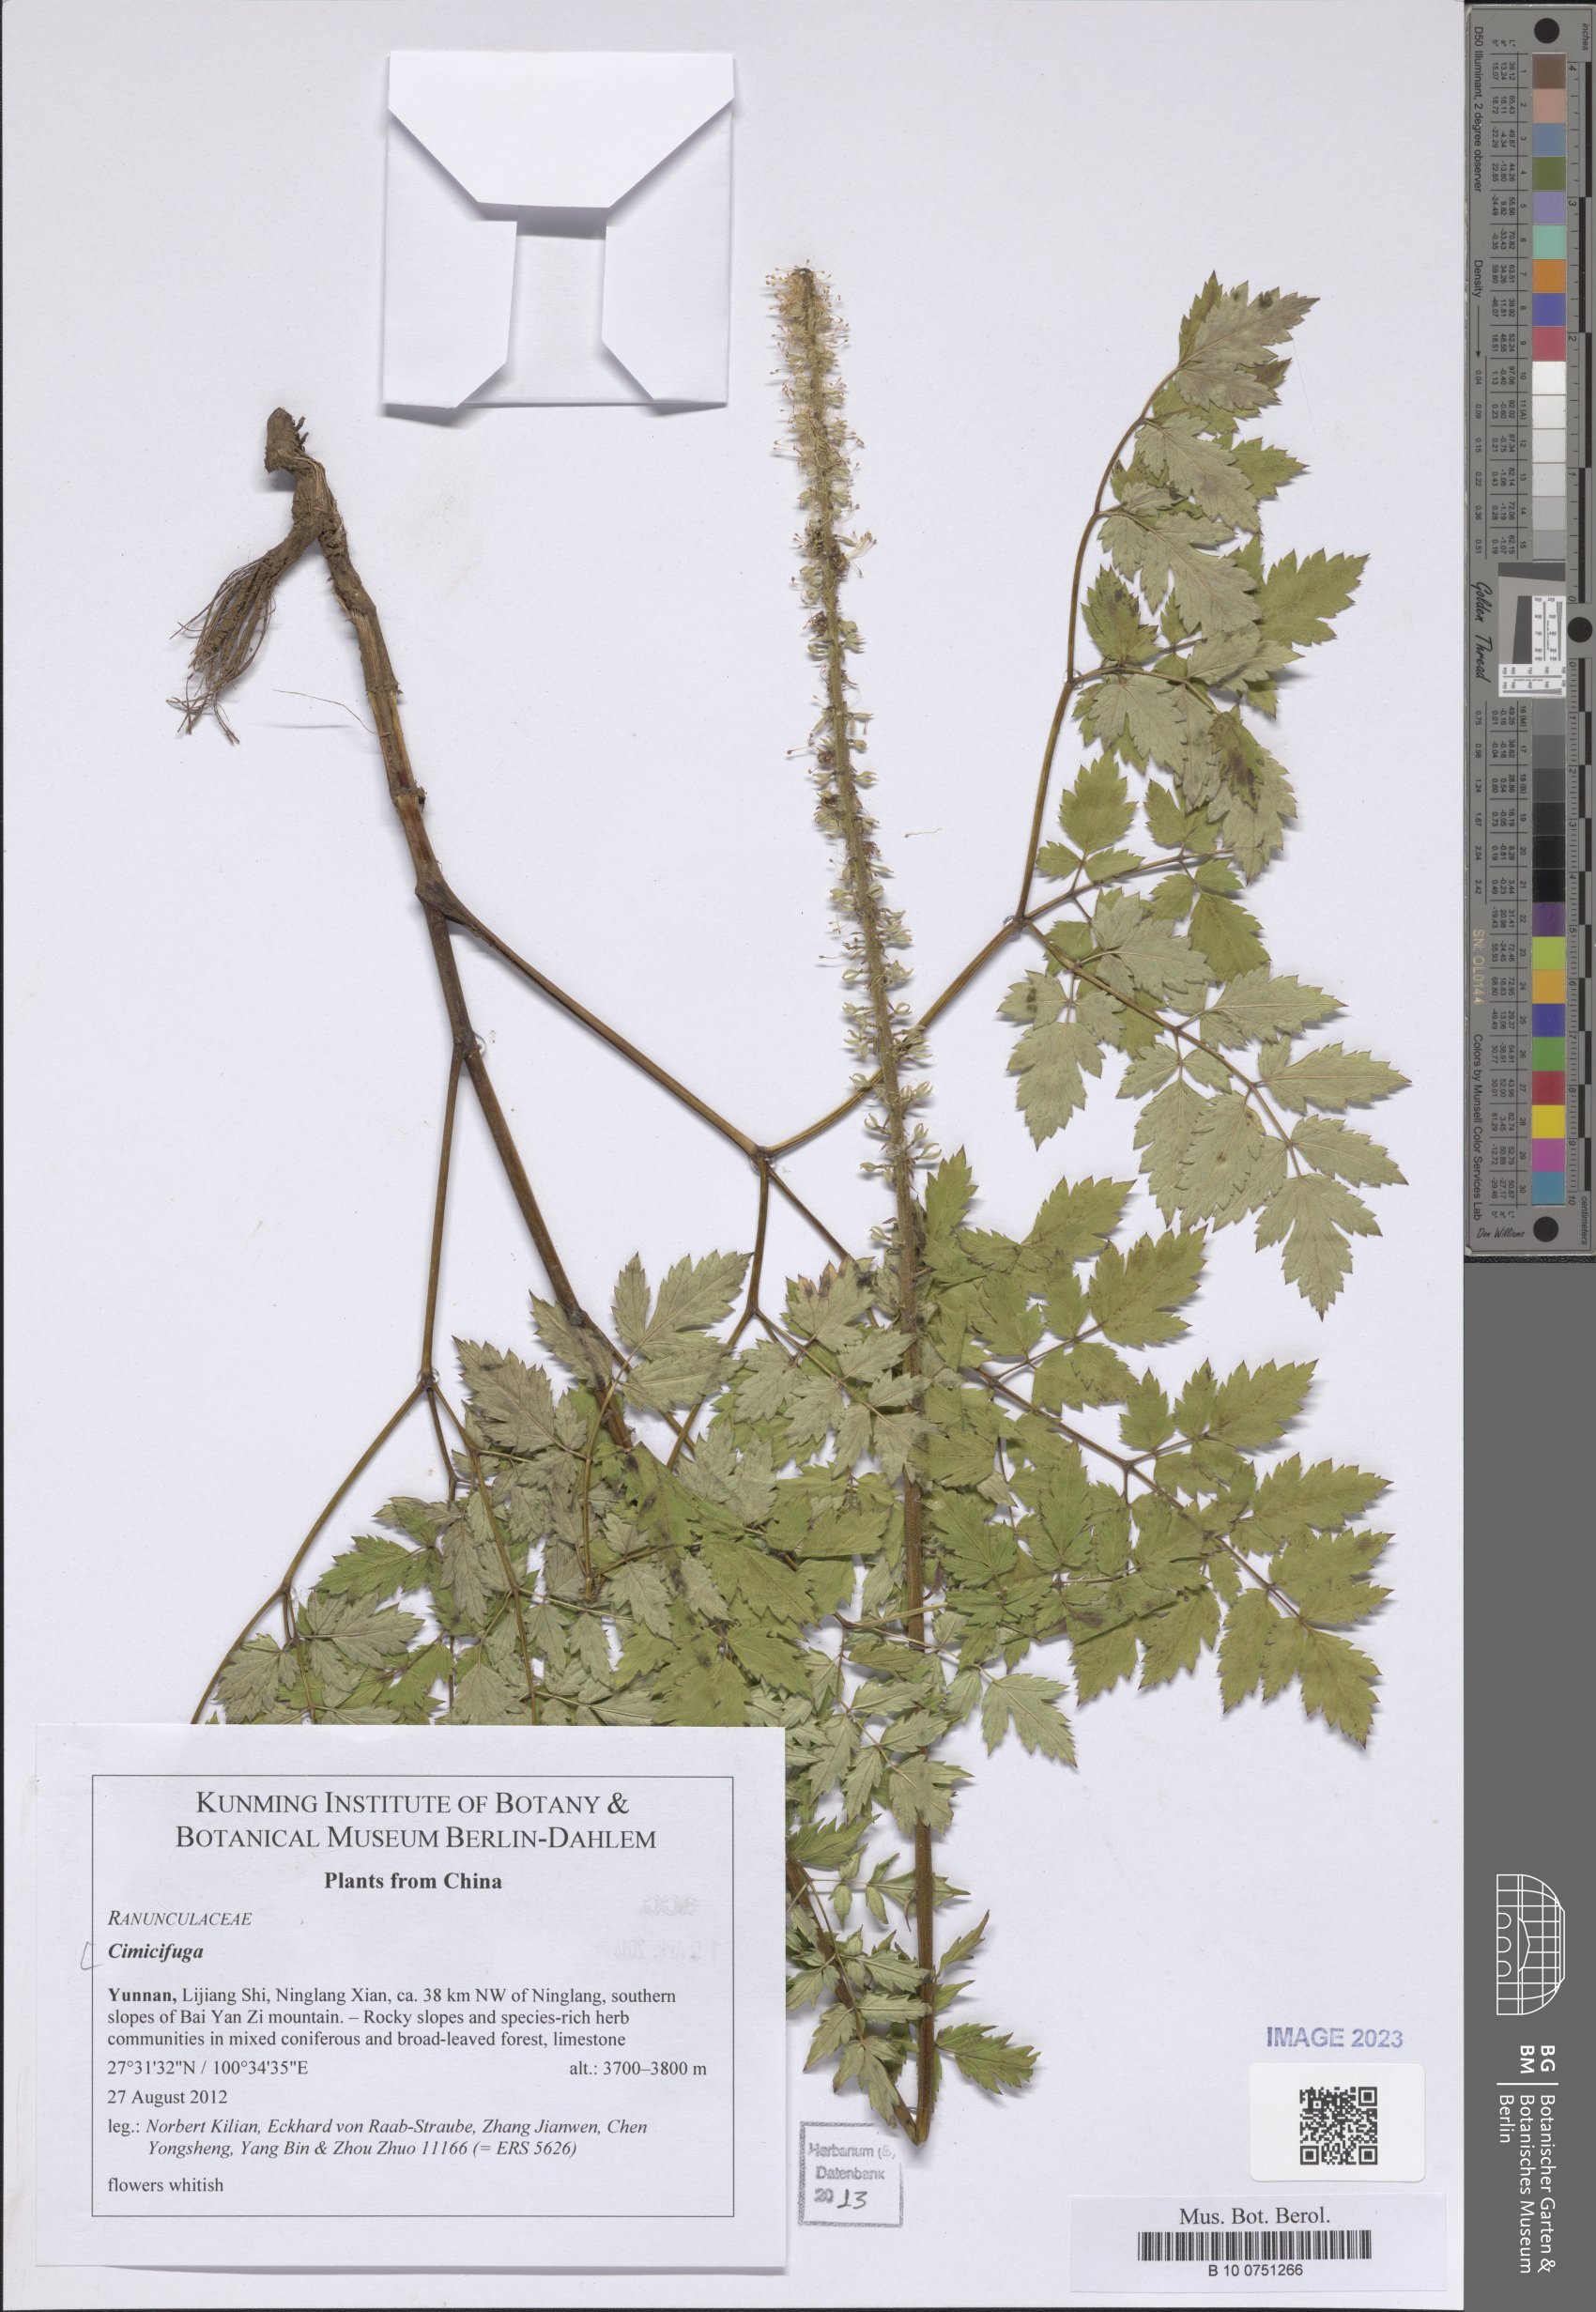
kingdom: Plantae
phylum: Tracheophyta
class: Magnoliopsida
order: Ranunculales
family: Ranunculaceae
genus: Actaea
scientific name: Actaea
